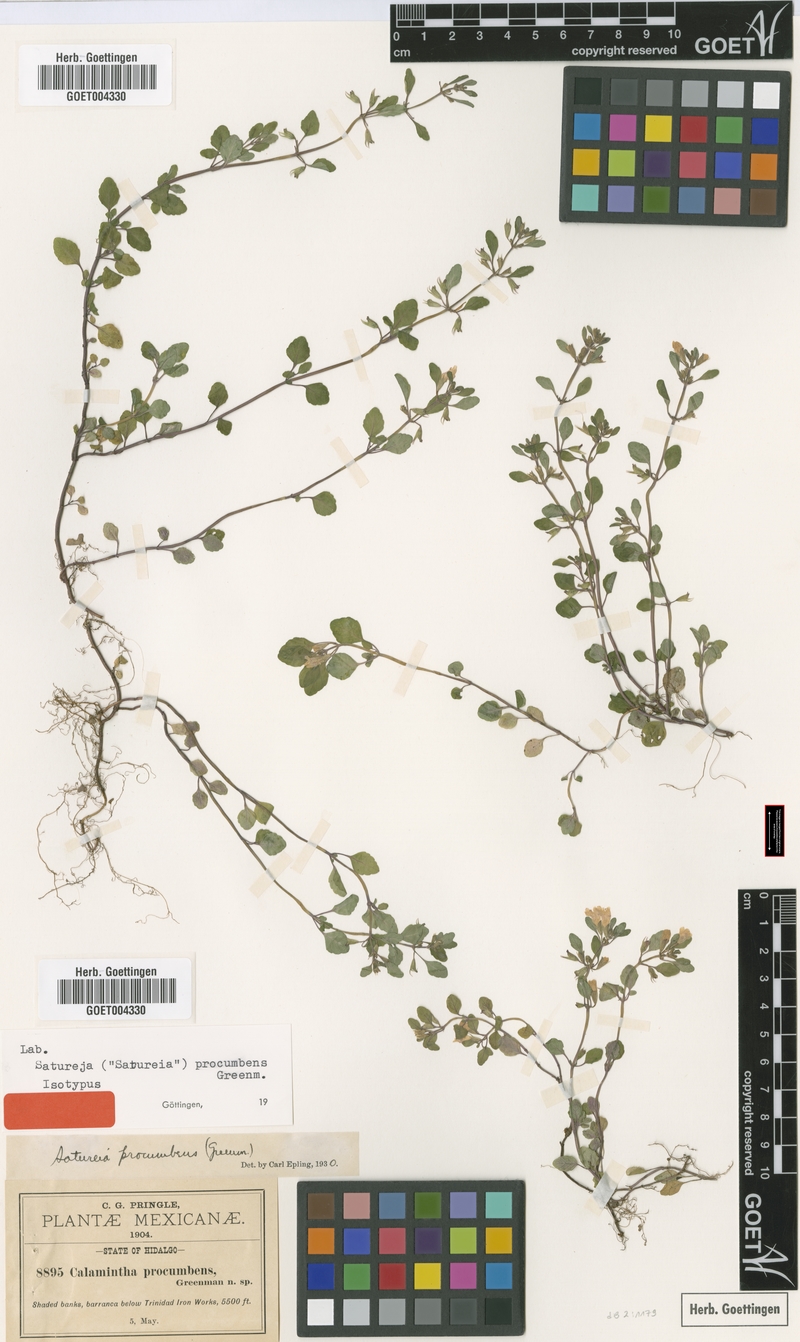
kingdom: Plantae
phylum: Tracheophyta
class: Magnoliopsida
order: Lamiales
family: Lamiaceae
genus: Clinopodium
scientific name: Clinopodium procumbens
